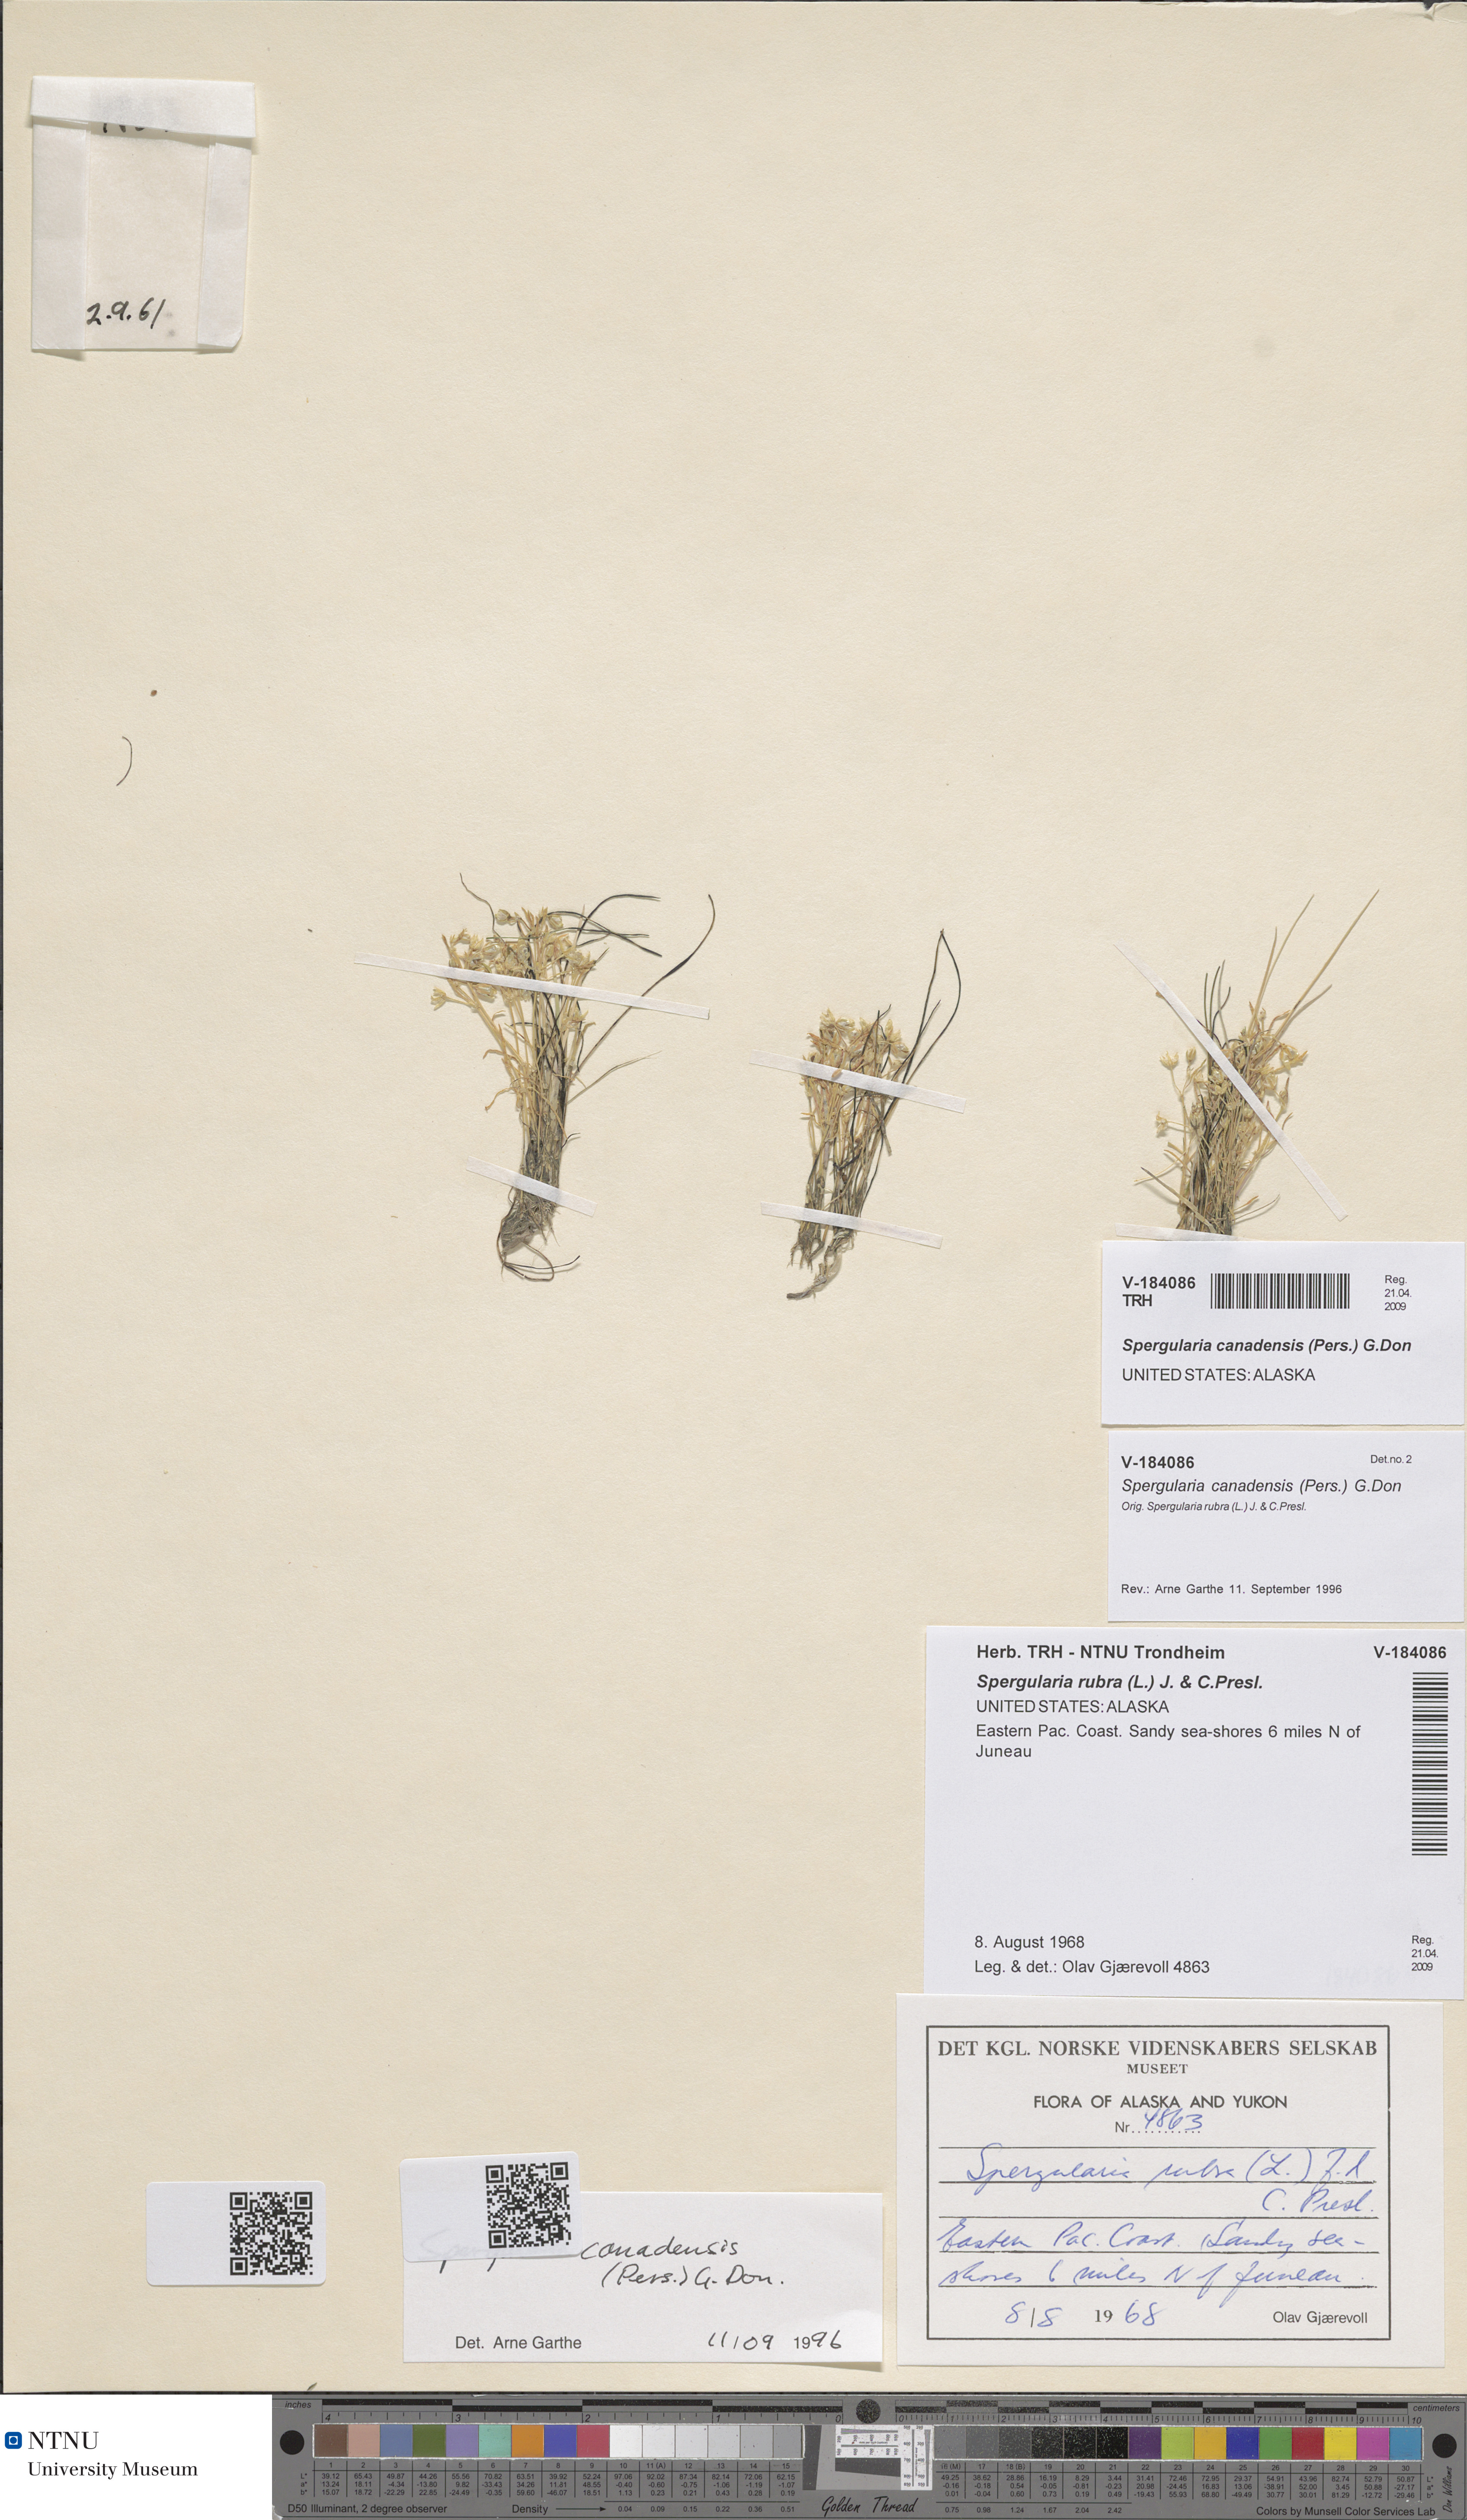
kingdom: Plantae
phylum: Tracheophyta
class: Magnoliopsida
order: Caryophyllales
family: Caryophyllaceae
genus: Spergularia
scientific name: Spergularia canadensis
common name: Canada sand-spurrey
